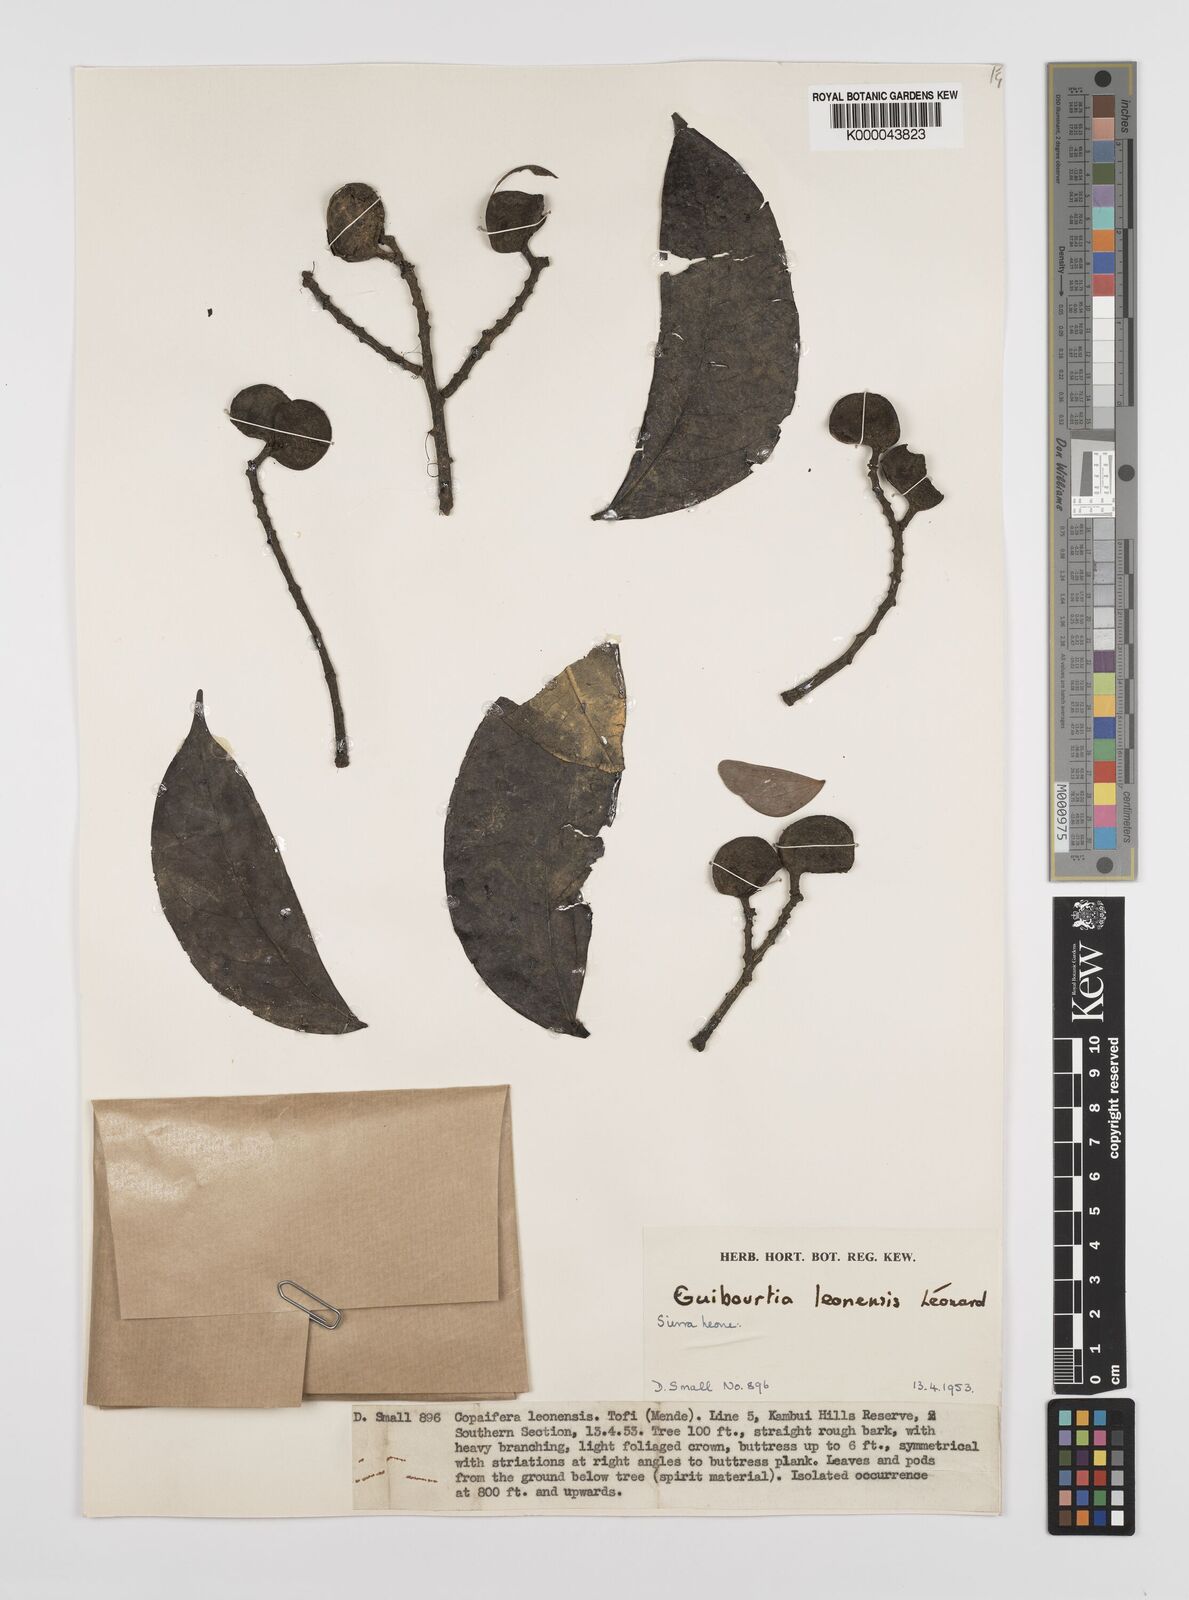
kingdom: Plantae
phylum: Tracheophyta
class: Magnoliopsida
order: Fabales
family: Fabaceae
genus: Guibourtia
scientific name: Guibourtia
